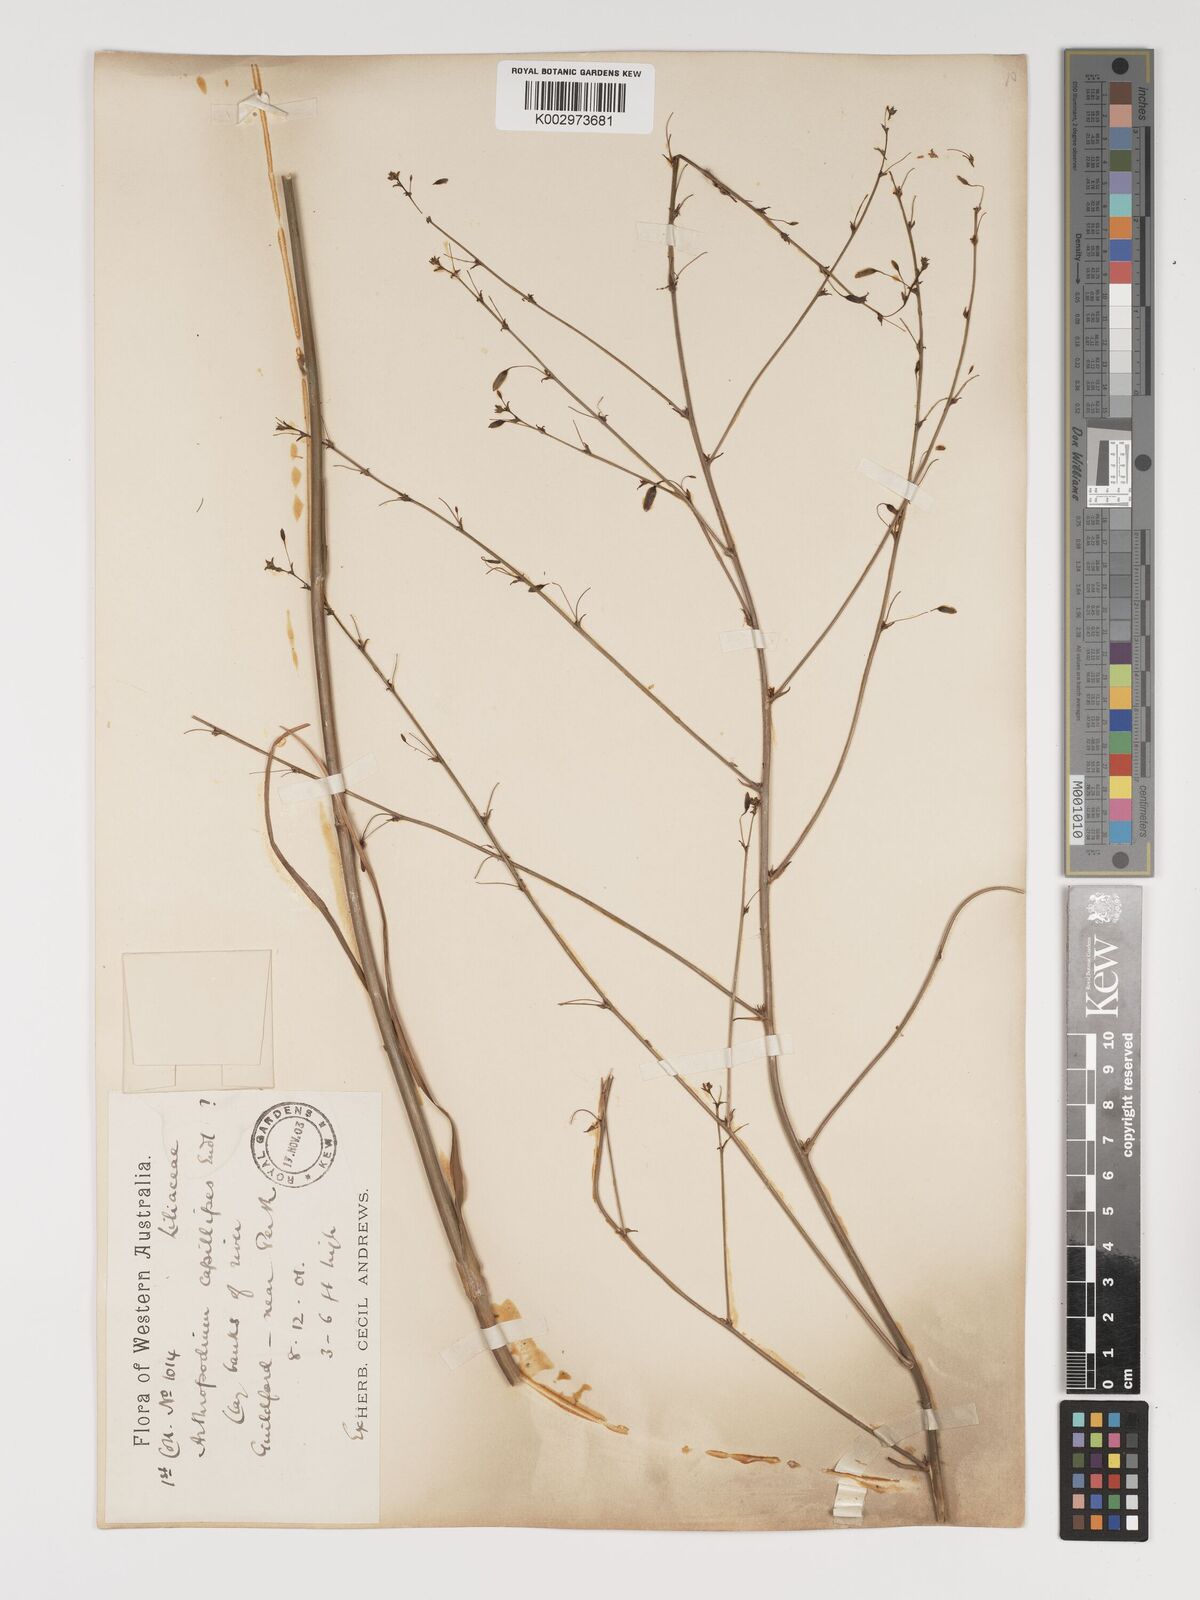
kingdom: Plantae
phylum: Tracheophyta
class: Liliopsida
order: Asparagales
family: Asparagaceae
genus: Dichopogon
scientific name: Dichopogon capillipes
